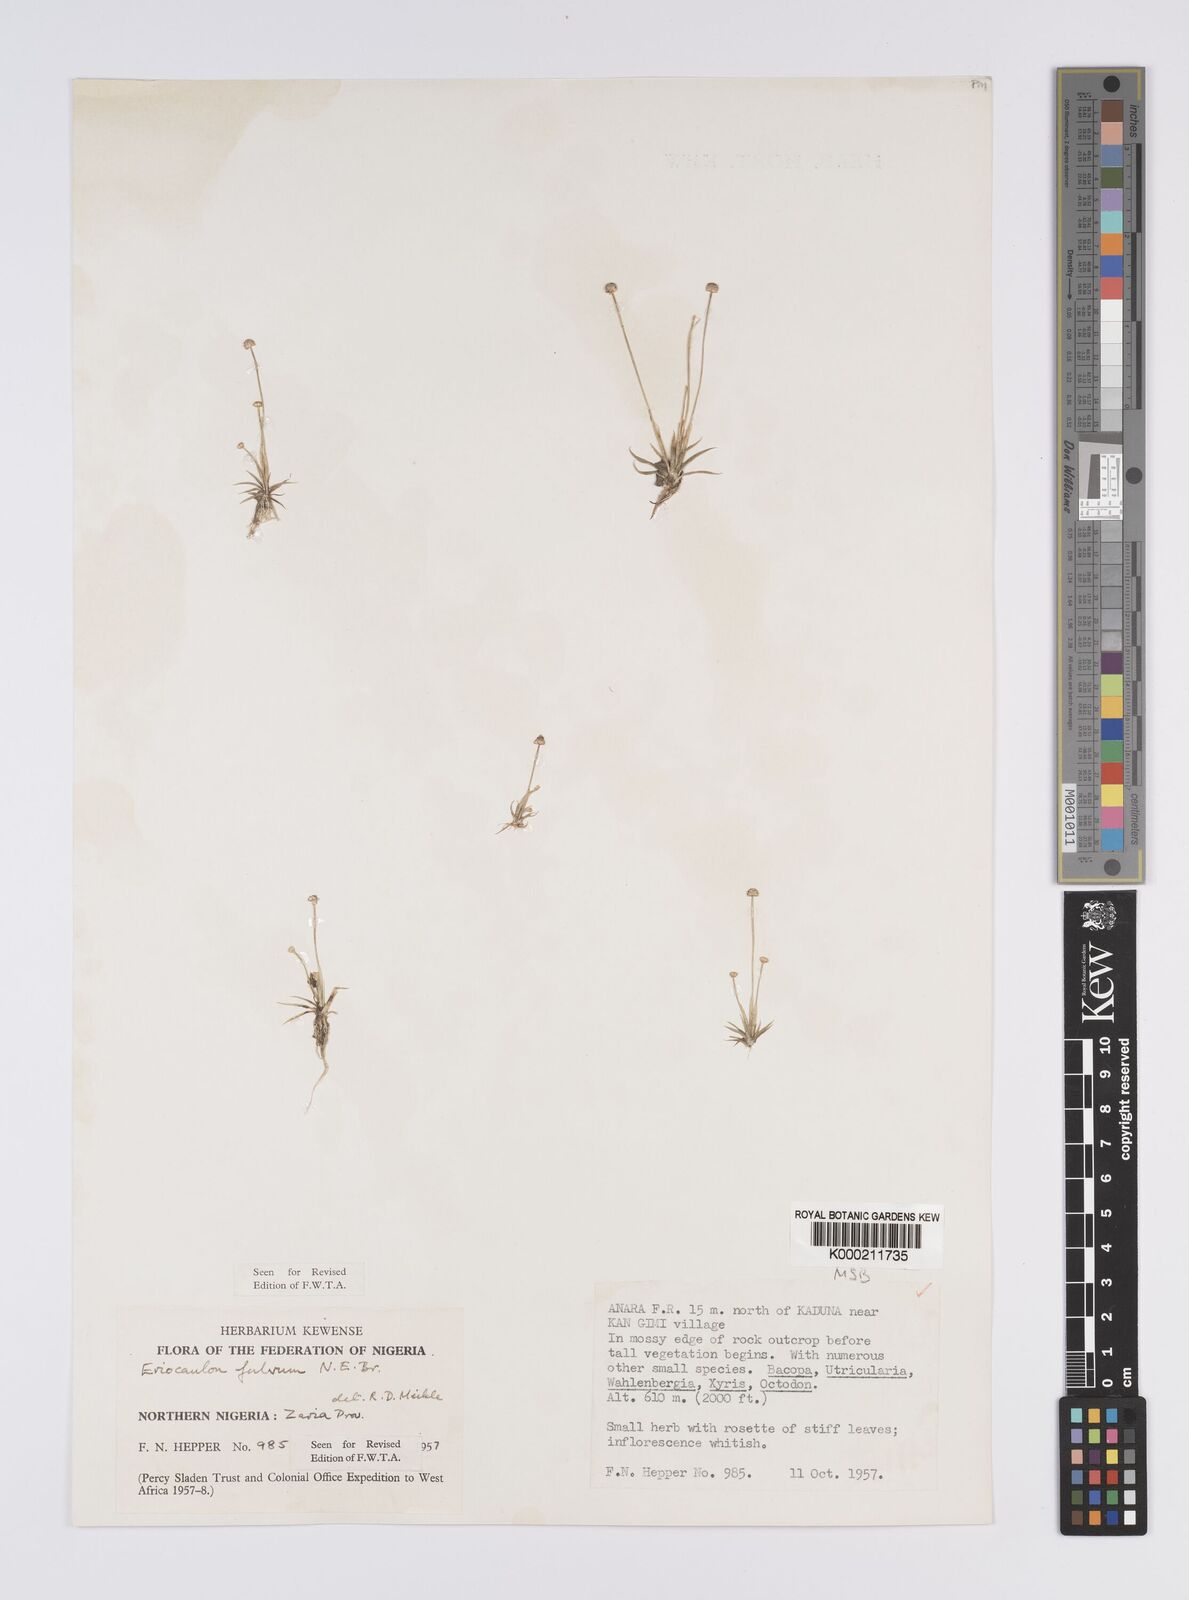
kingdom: Plantae
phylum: Tracheophyta
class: Liliopsida
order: Poales
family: Eriocaulaceae
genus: Eriocaulon
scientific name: Eriocaulon fulvum
